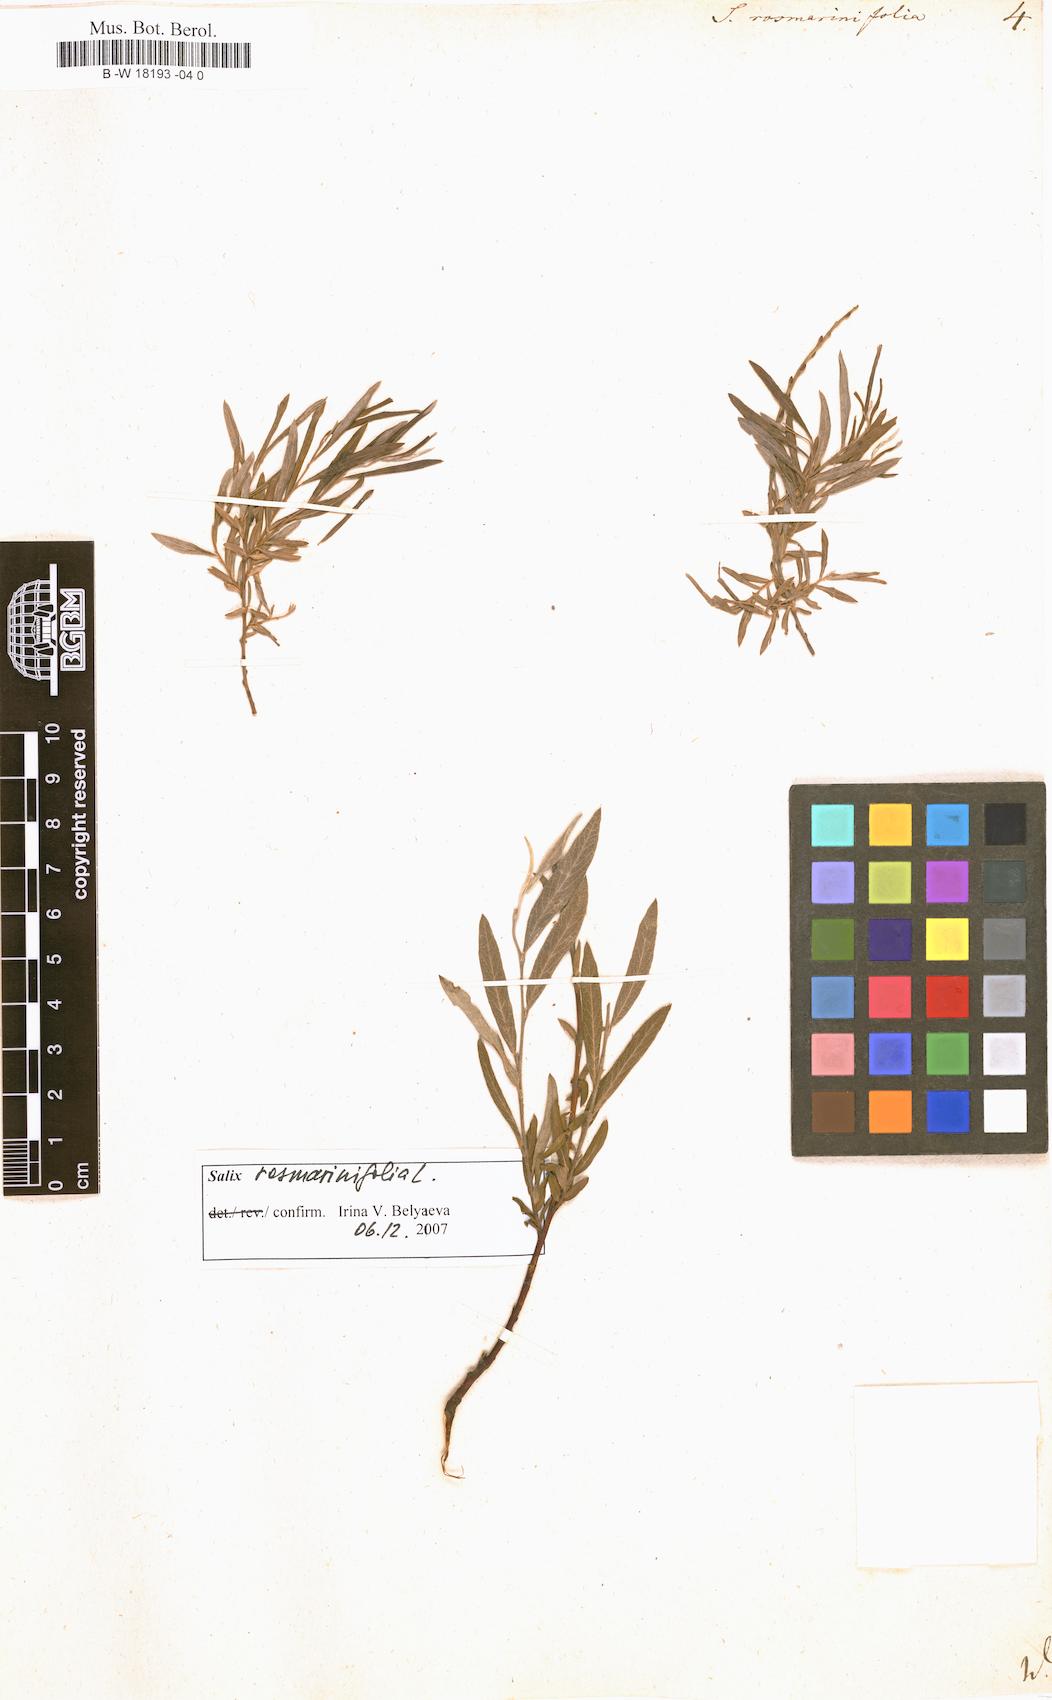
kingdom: Plantae
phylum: Tracheophyta
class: Magnoliopsida
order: Malpighiales
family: Salicaceae
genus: Salix
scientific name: Salix rosmarinifolia
